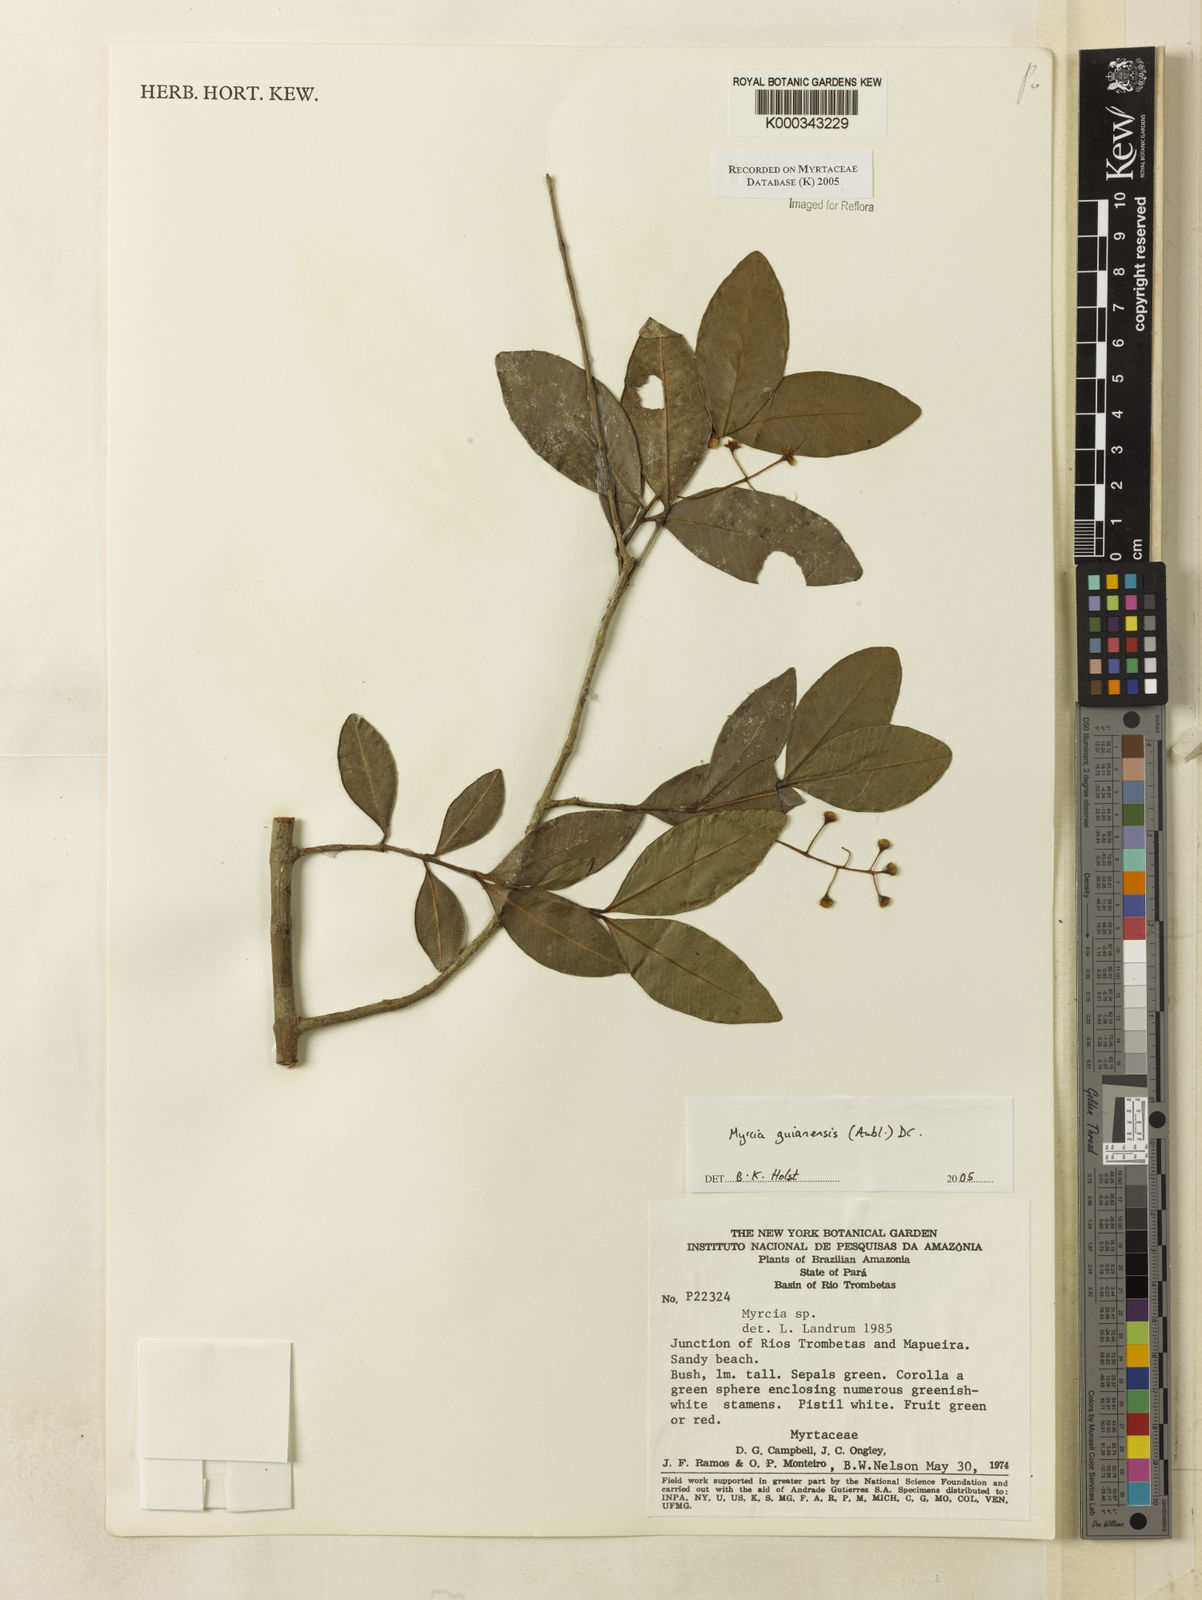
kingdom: Plantae
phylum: Tracheophyta
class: Magnoliopsida
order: Myrtales
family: Myrtaceae
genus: Myrcia
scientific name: Myrcia guianensis
